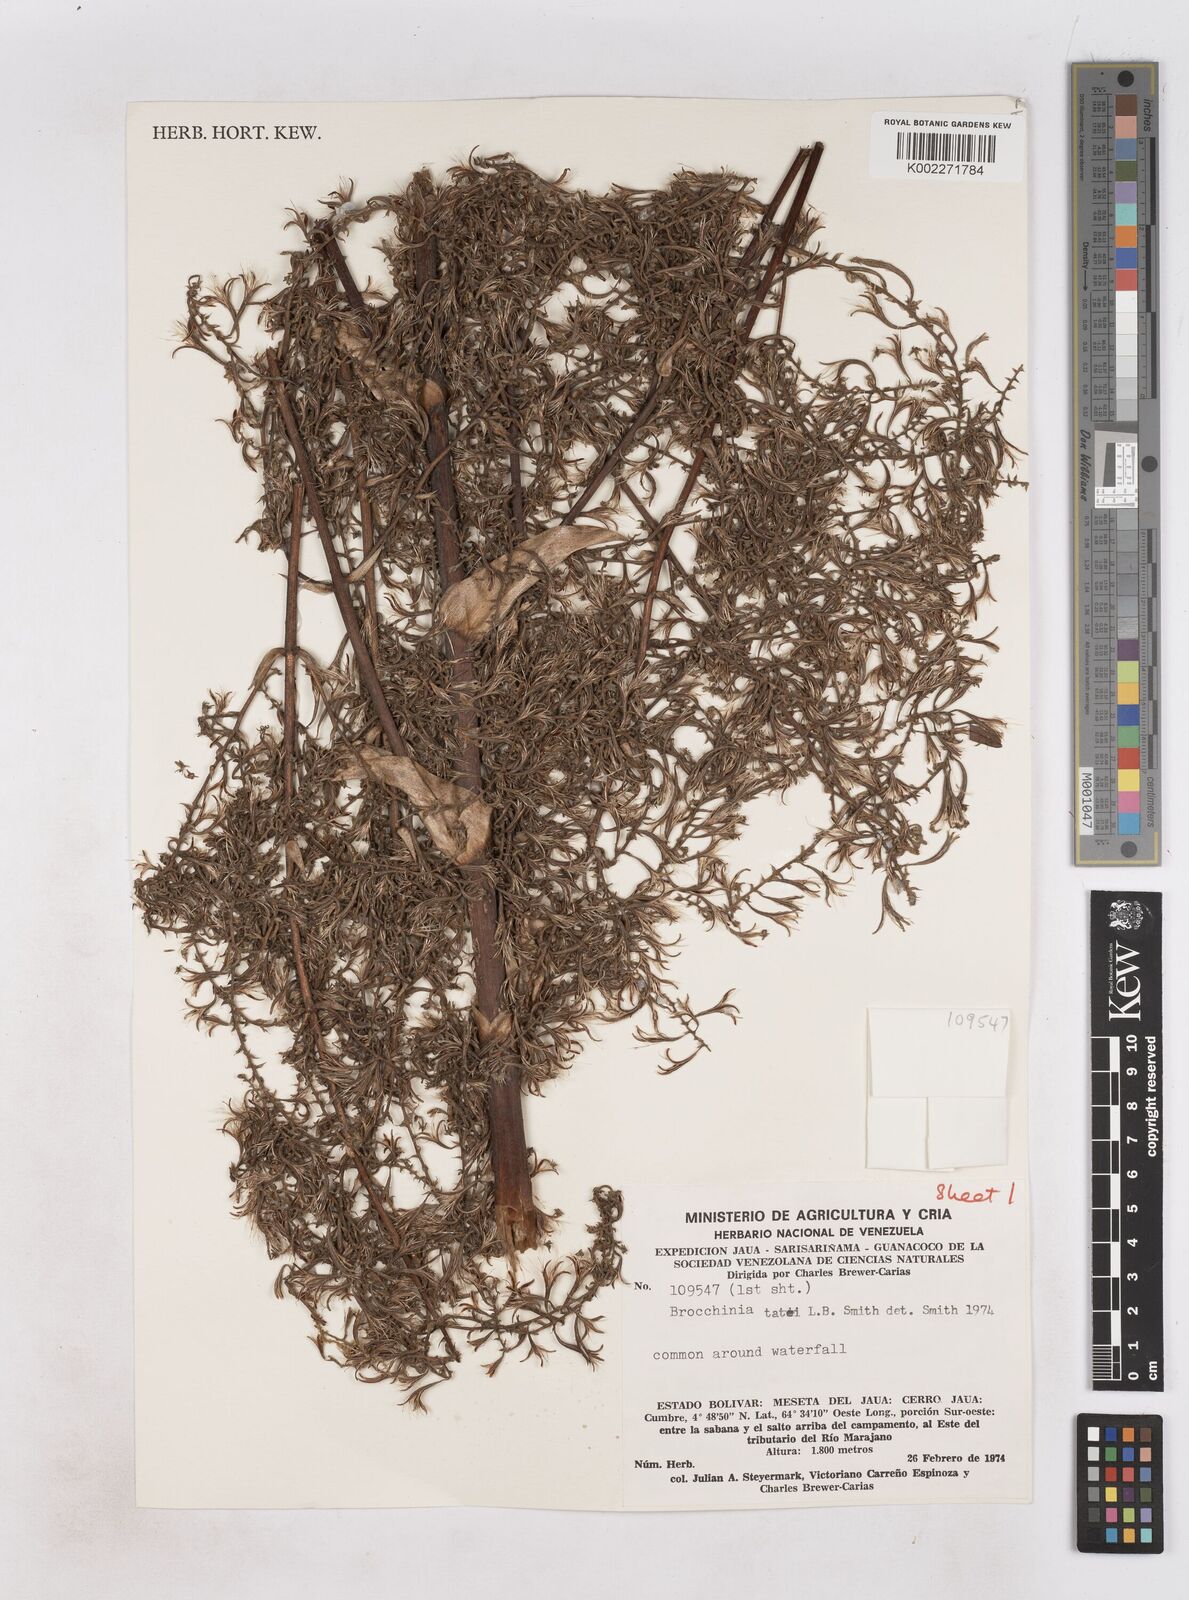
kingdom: Plantae
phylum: Tracheophyta
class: Liliopsida
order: Poales
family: Bromeliaceae
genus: Brocchinia
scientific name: Brocchinia tatei
